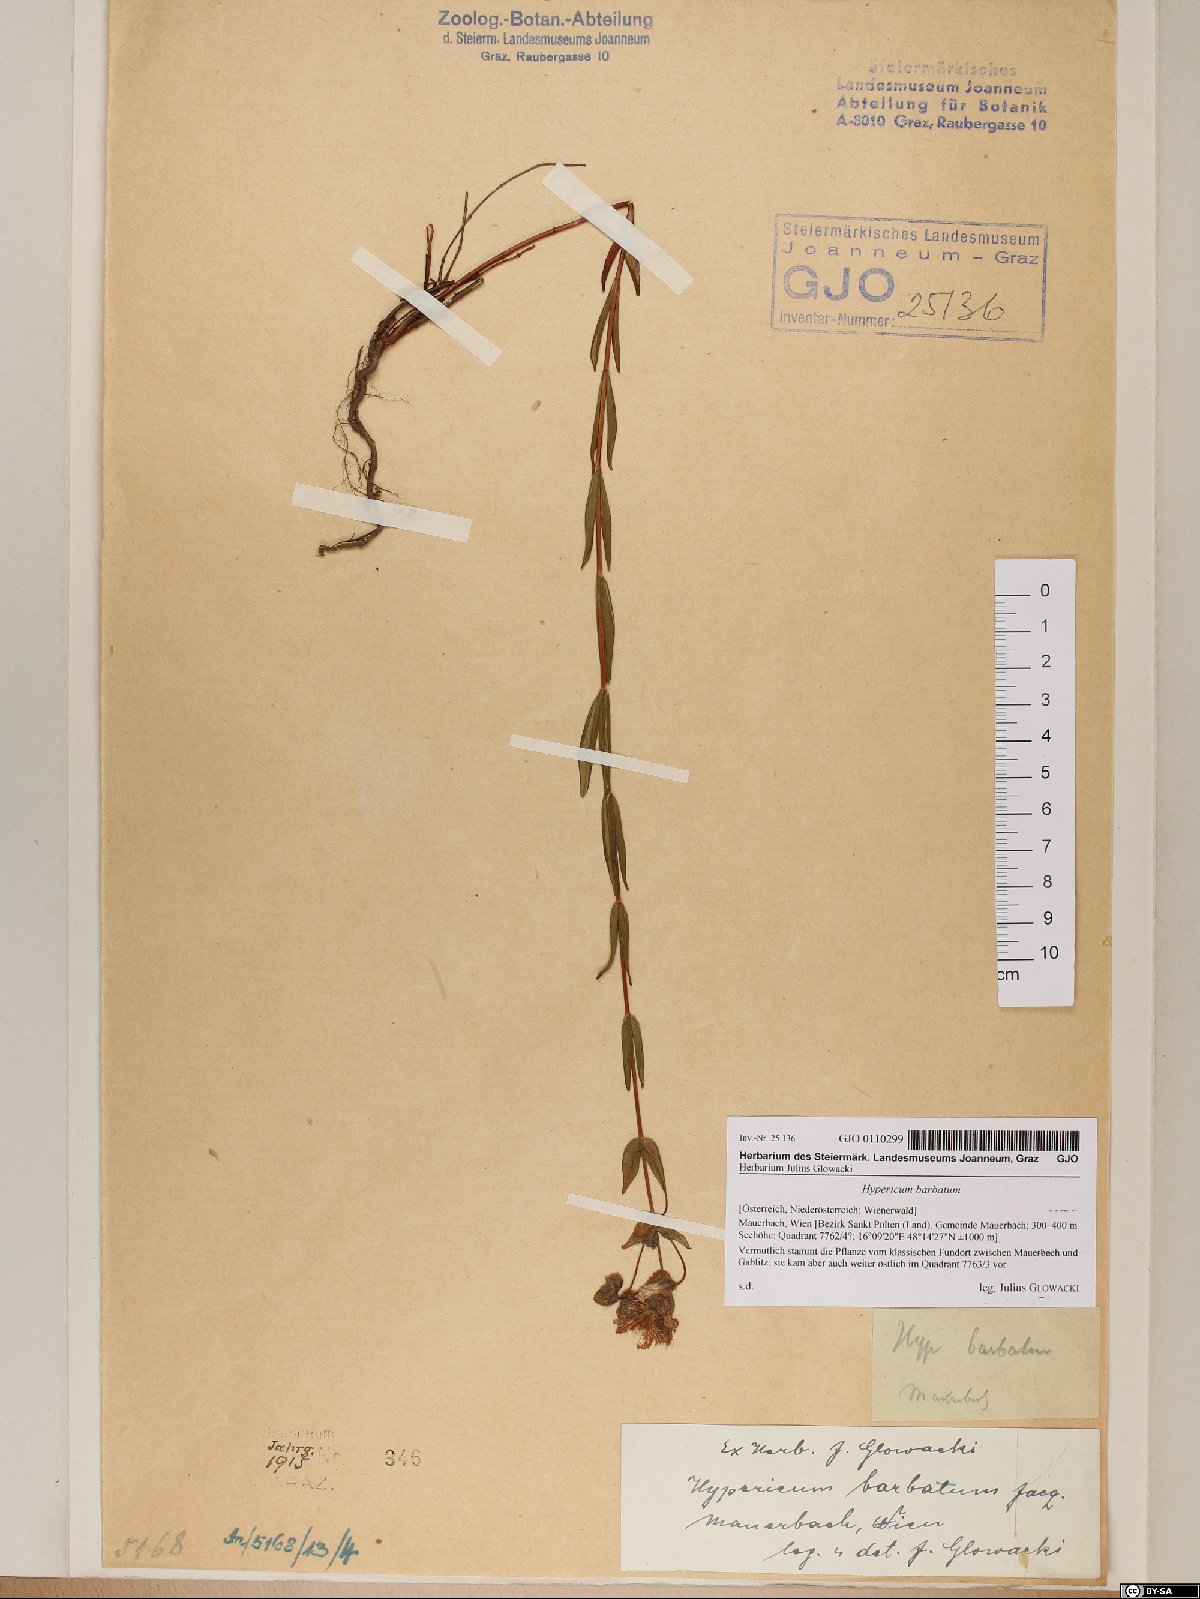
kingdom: Plantae
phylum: Tracheophyta
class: Magnoliopsida
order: Malpighiales
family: Hypericaceae
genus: Hypericum
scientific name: Hypericum barbatum
